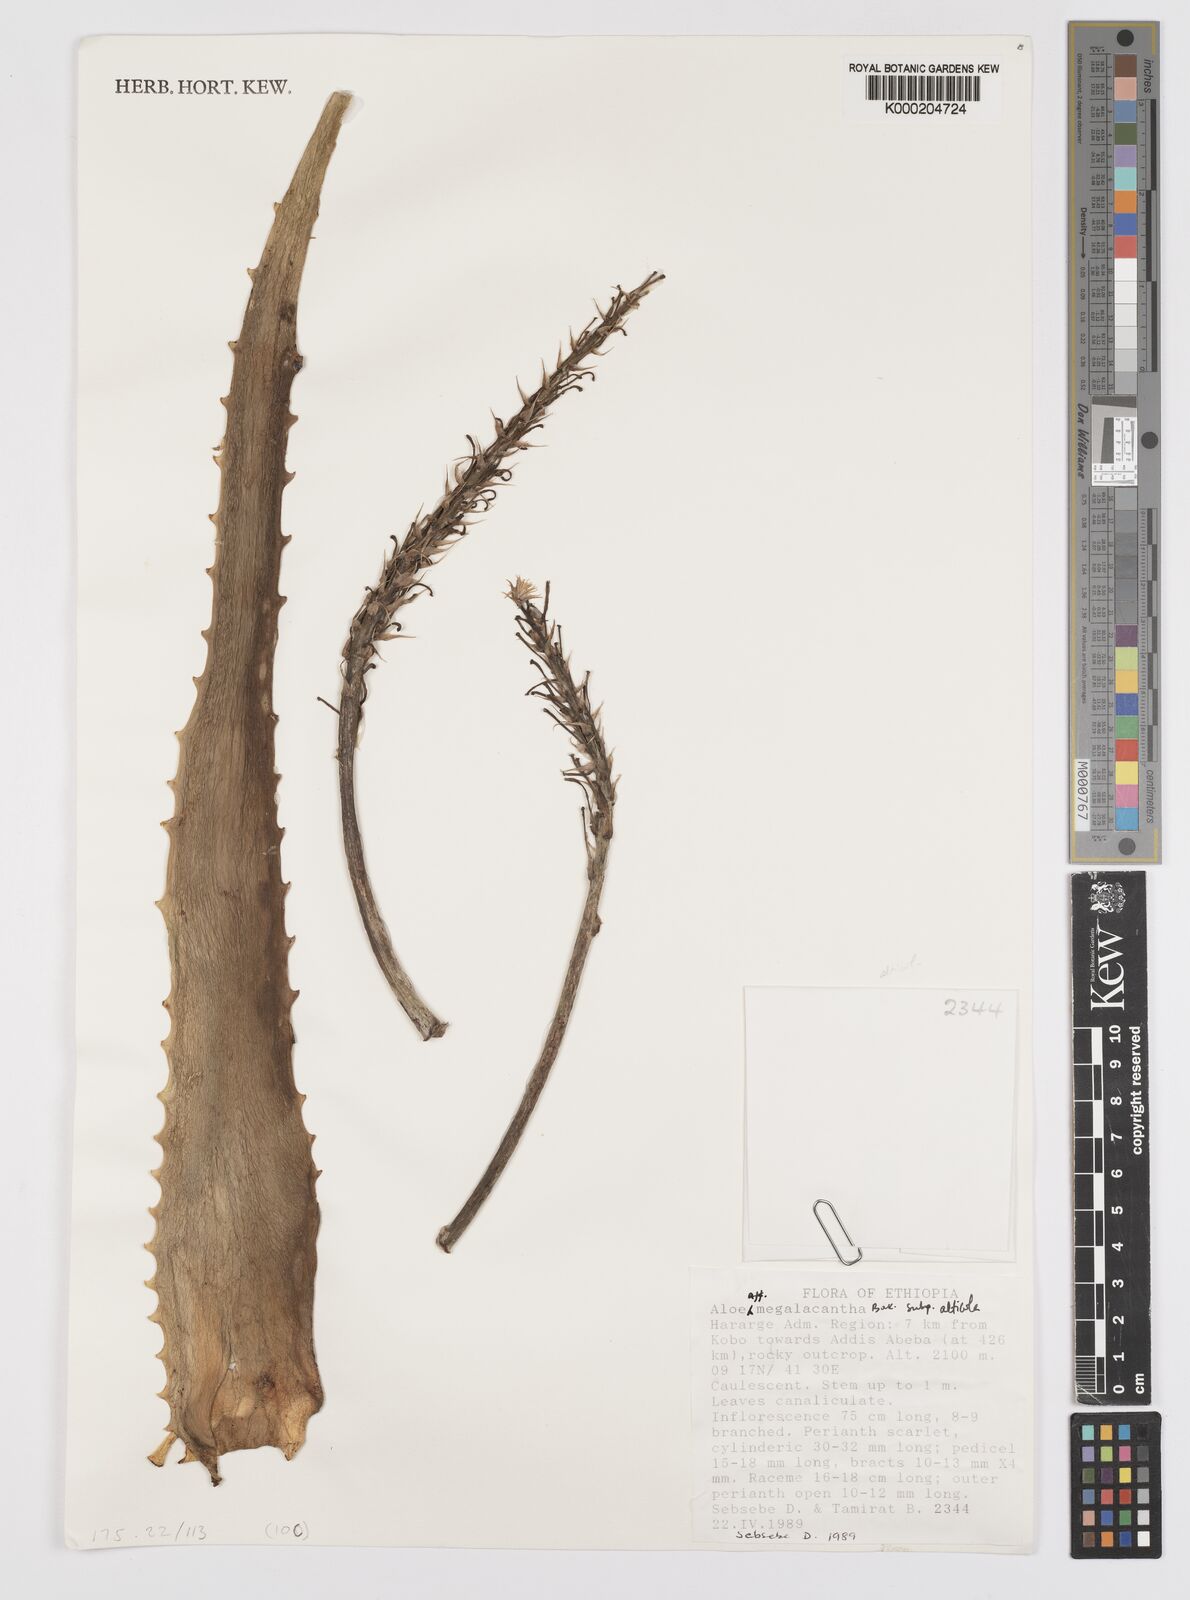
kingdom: Plantae
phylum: Tracheophyta
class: Liliopsida
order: Asparagales
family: Asphodelaceae
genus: Aloe
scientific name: Aloe megalacantha
